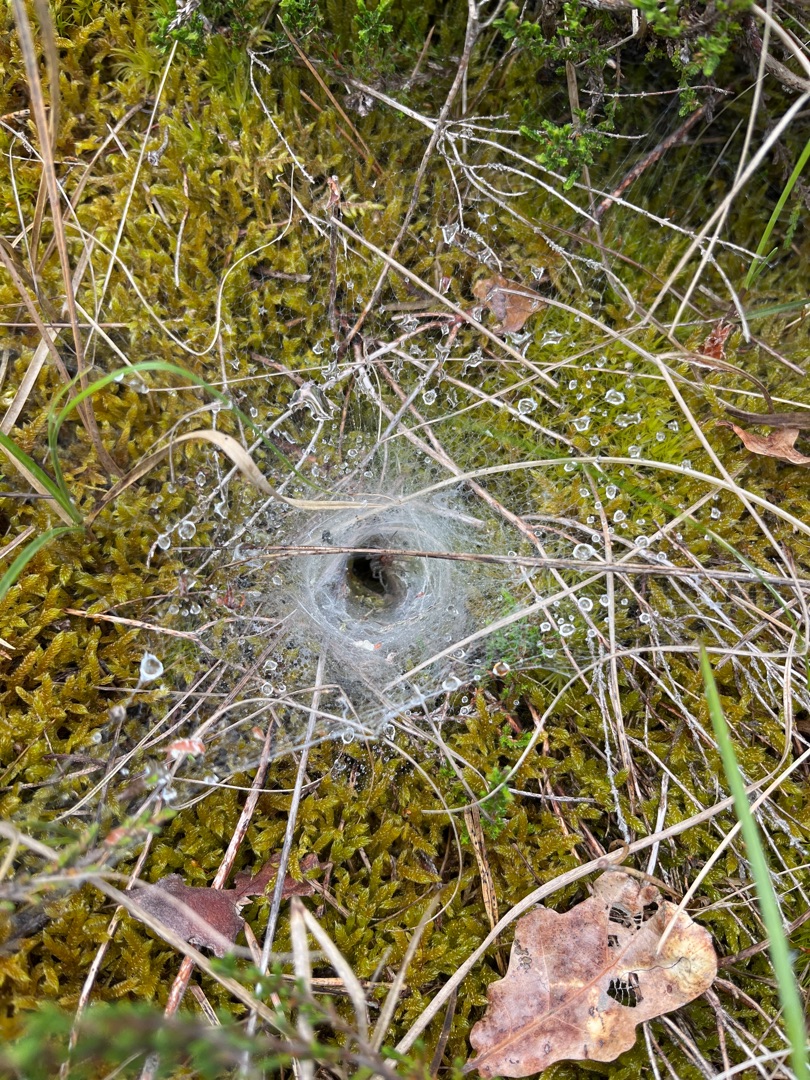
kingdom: Animalia
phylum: Arthropoda
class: Arachnida
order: Araneae
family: Agelenidae
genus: Agelena
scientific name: Agelena labyrinthica
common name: Labyrintedderkop
